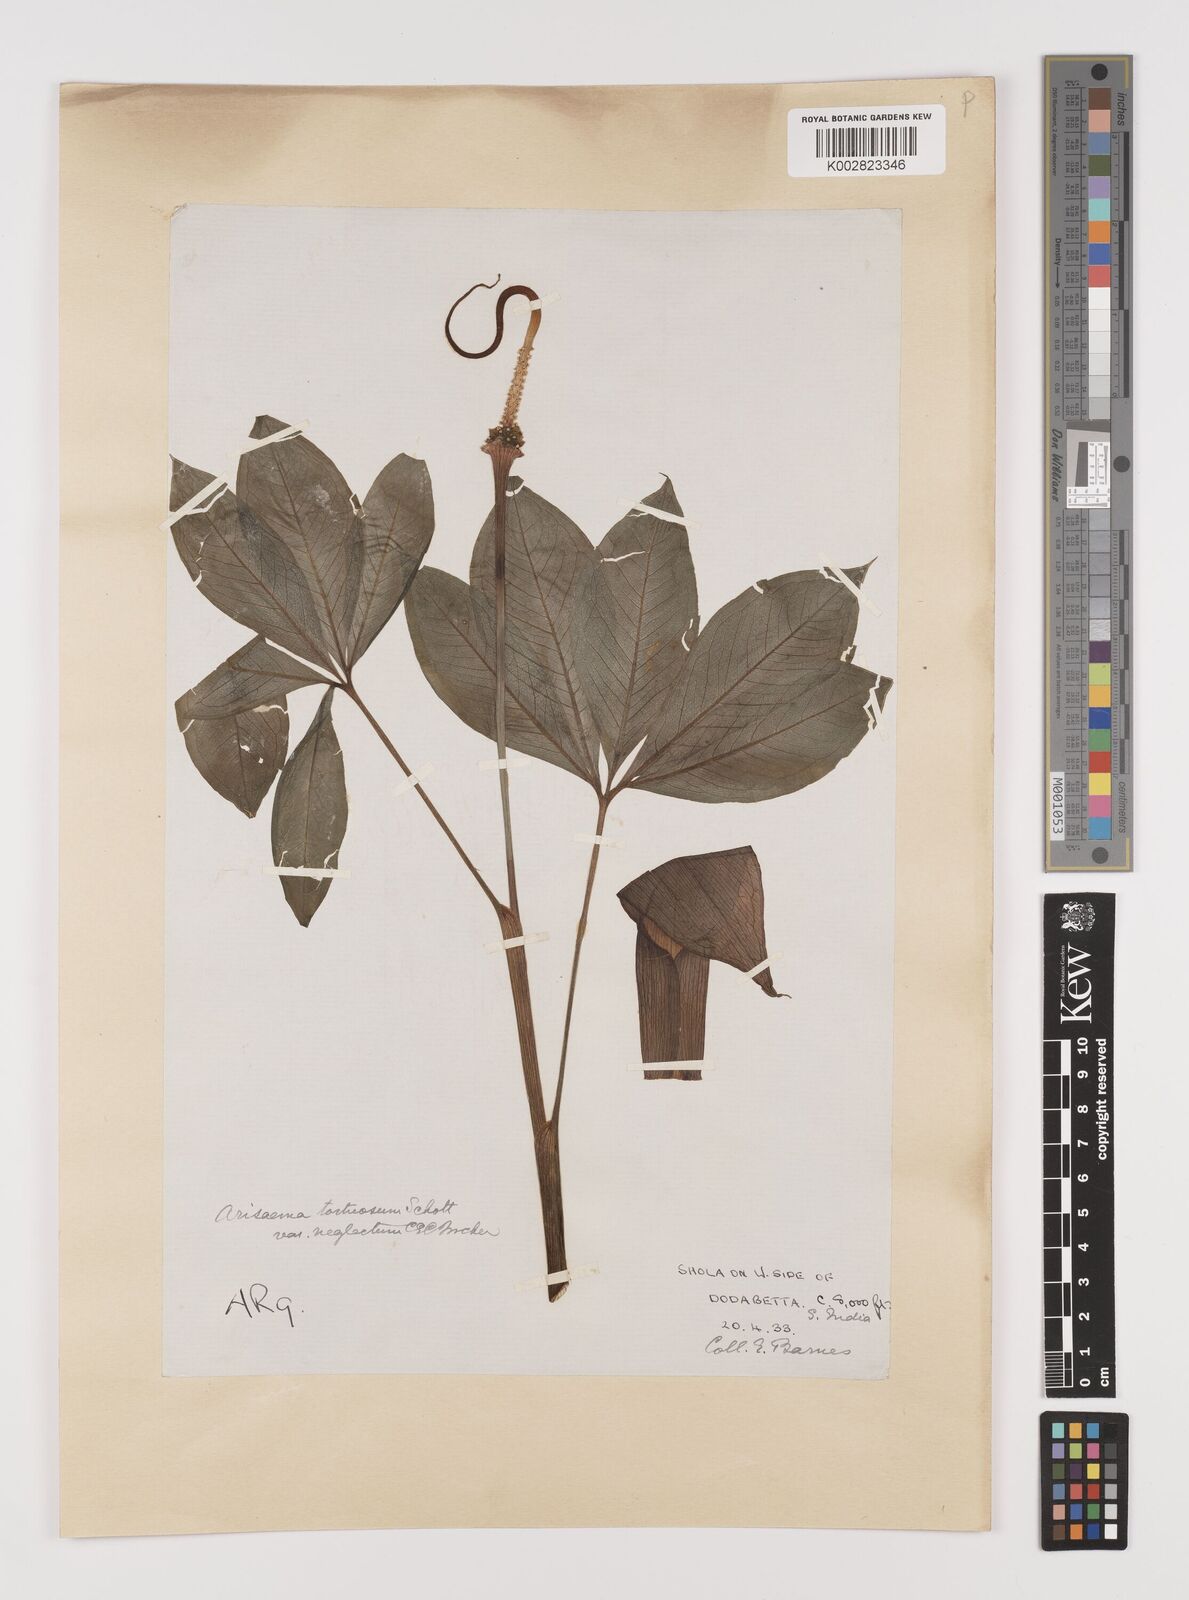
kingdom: Plantae
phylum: Tracheophyta
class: Liliopsida
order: Alismatales
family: Araceae
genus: Arisaema
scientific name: Arisaema tortuosum
